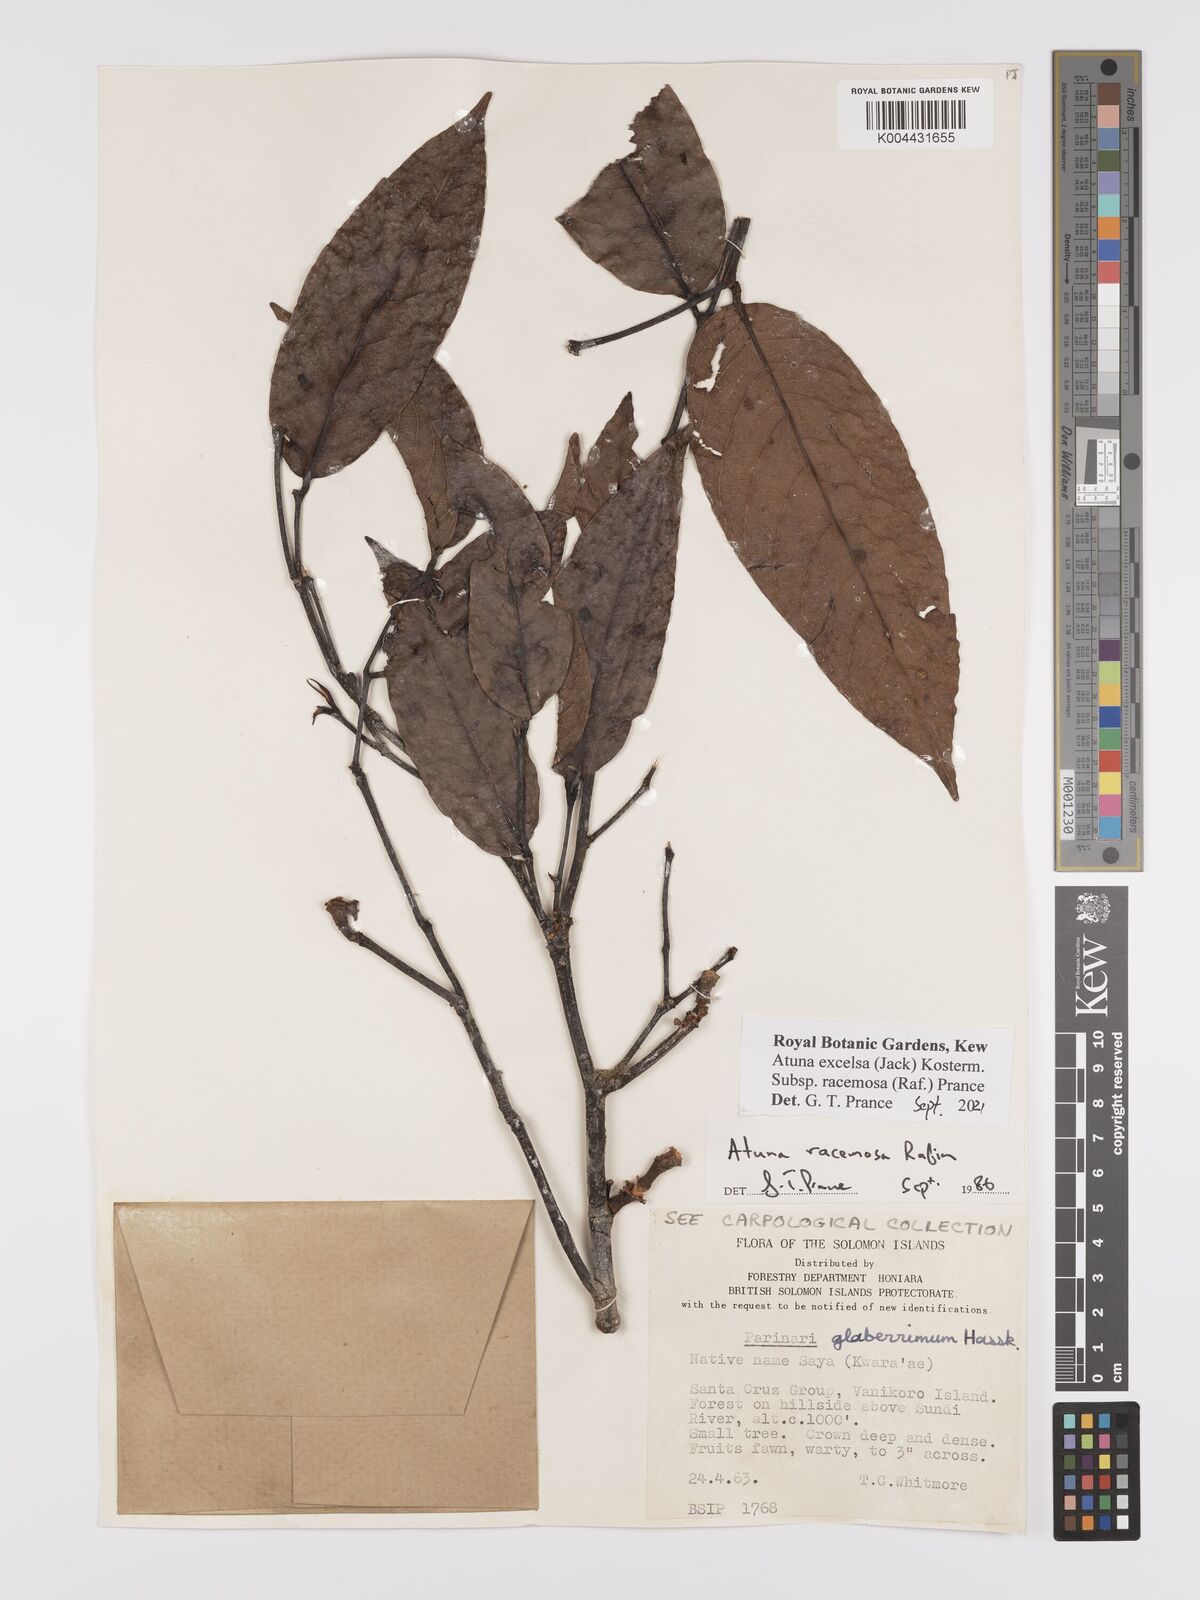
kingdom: Plantae
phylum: Tracheophyta
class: Magnoliopsida
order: Malpighiales
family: Chrysobalanaceae
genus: Atuna
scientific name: Atuna excelsa
